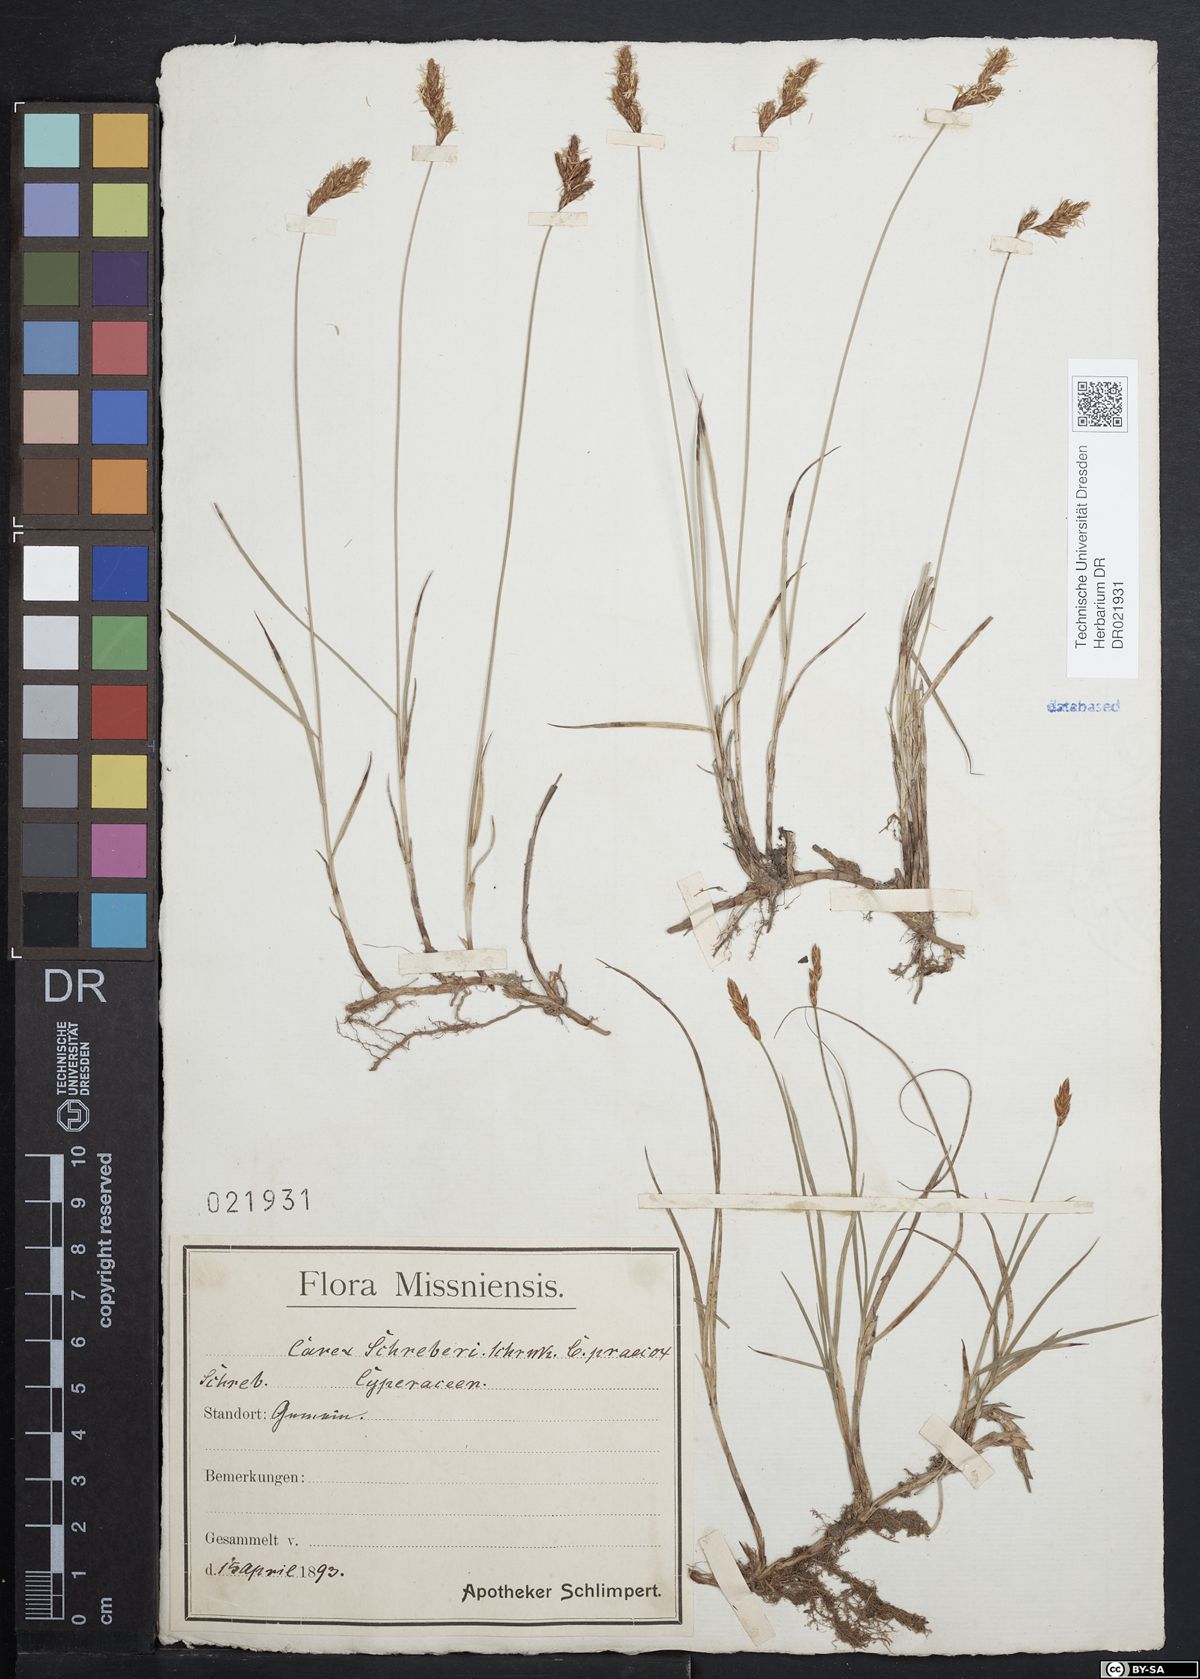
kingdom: Plantae
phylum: Tracheophyta
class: Liliopsida
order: Poales
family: Cyperaceae
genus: Carex
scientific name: Carex praecox
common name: Early sedge
